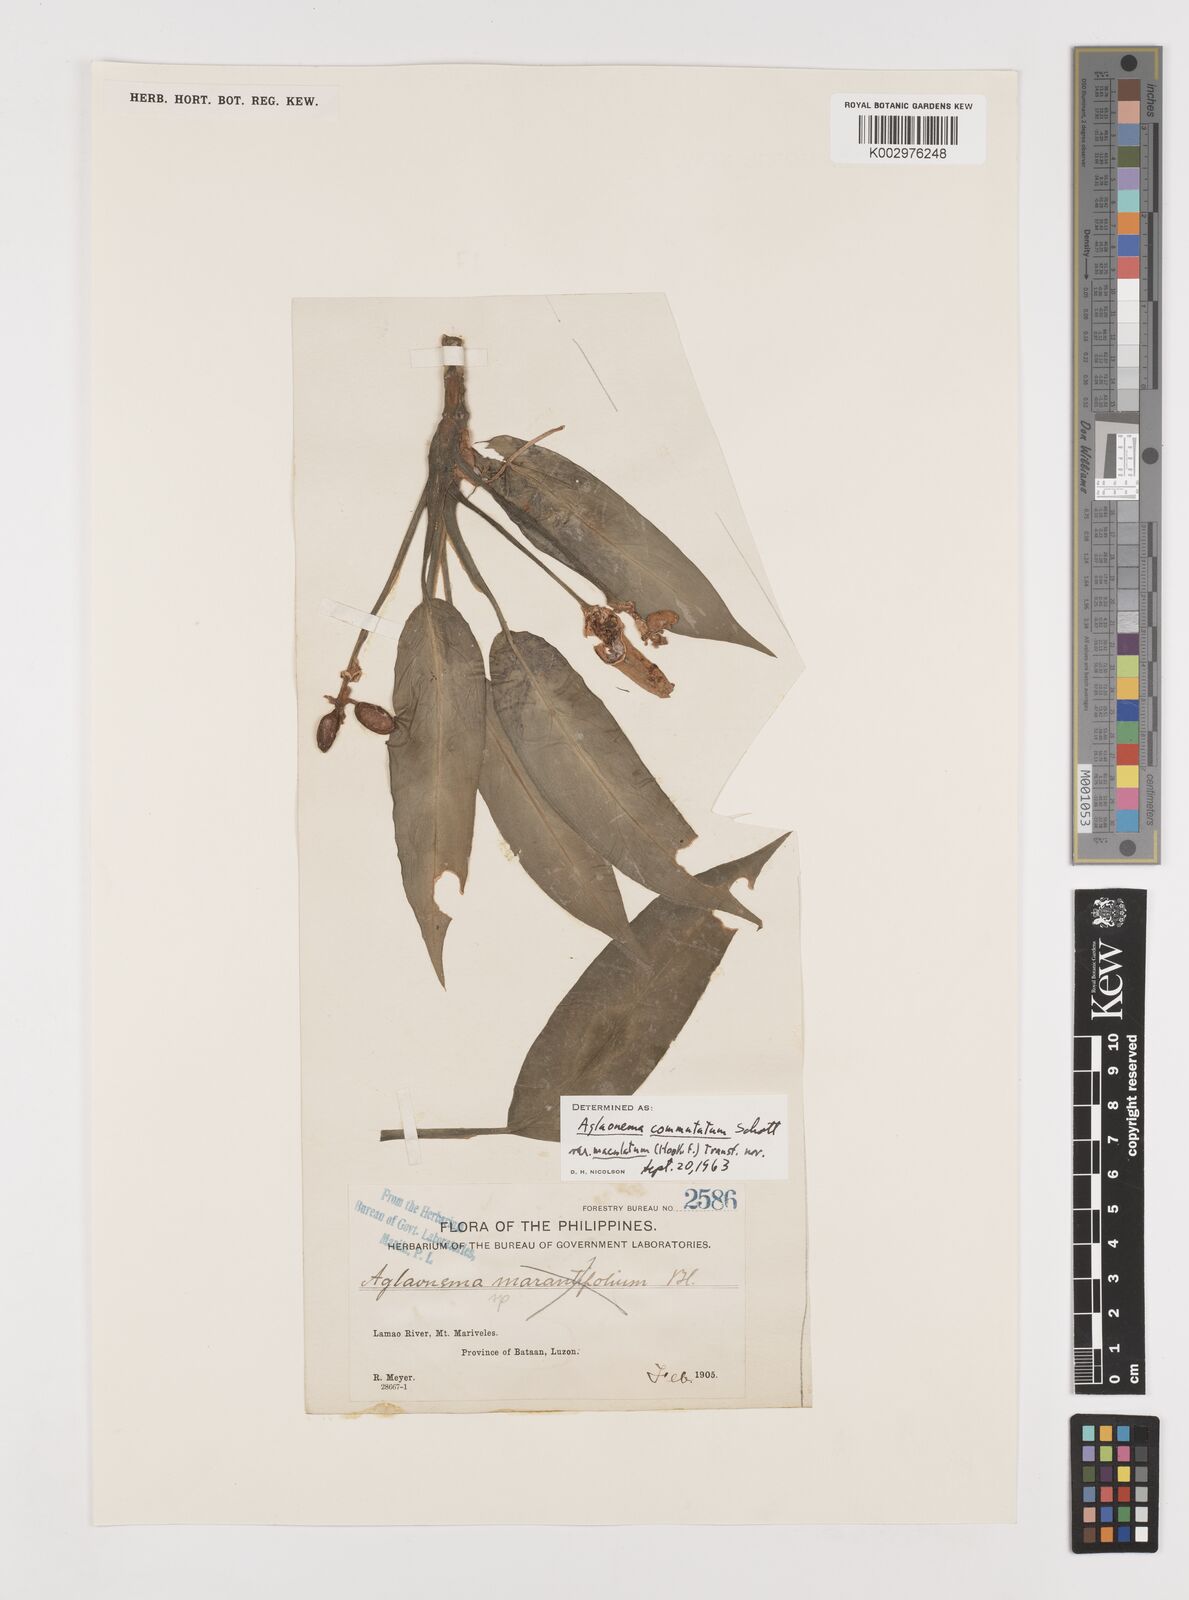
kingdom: Plantae
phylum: Tracheophyta
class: Liliopsida
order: Alismatales
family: Araceae
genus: Aglaonema
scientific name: Aglaonema commutatum
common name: Philippine evergreen
